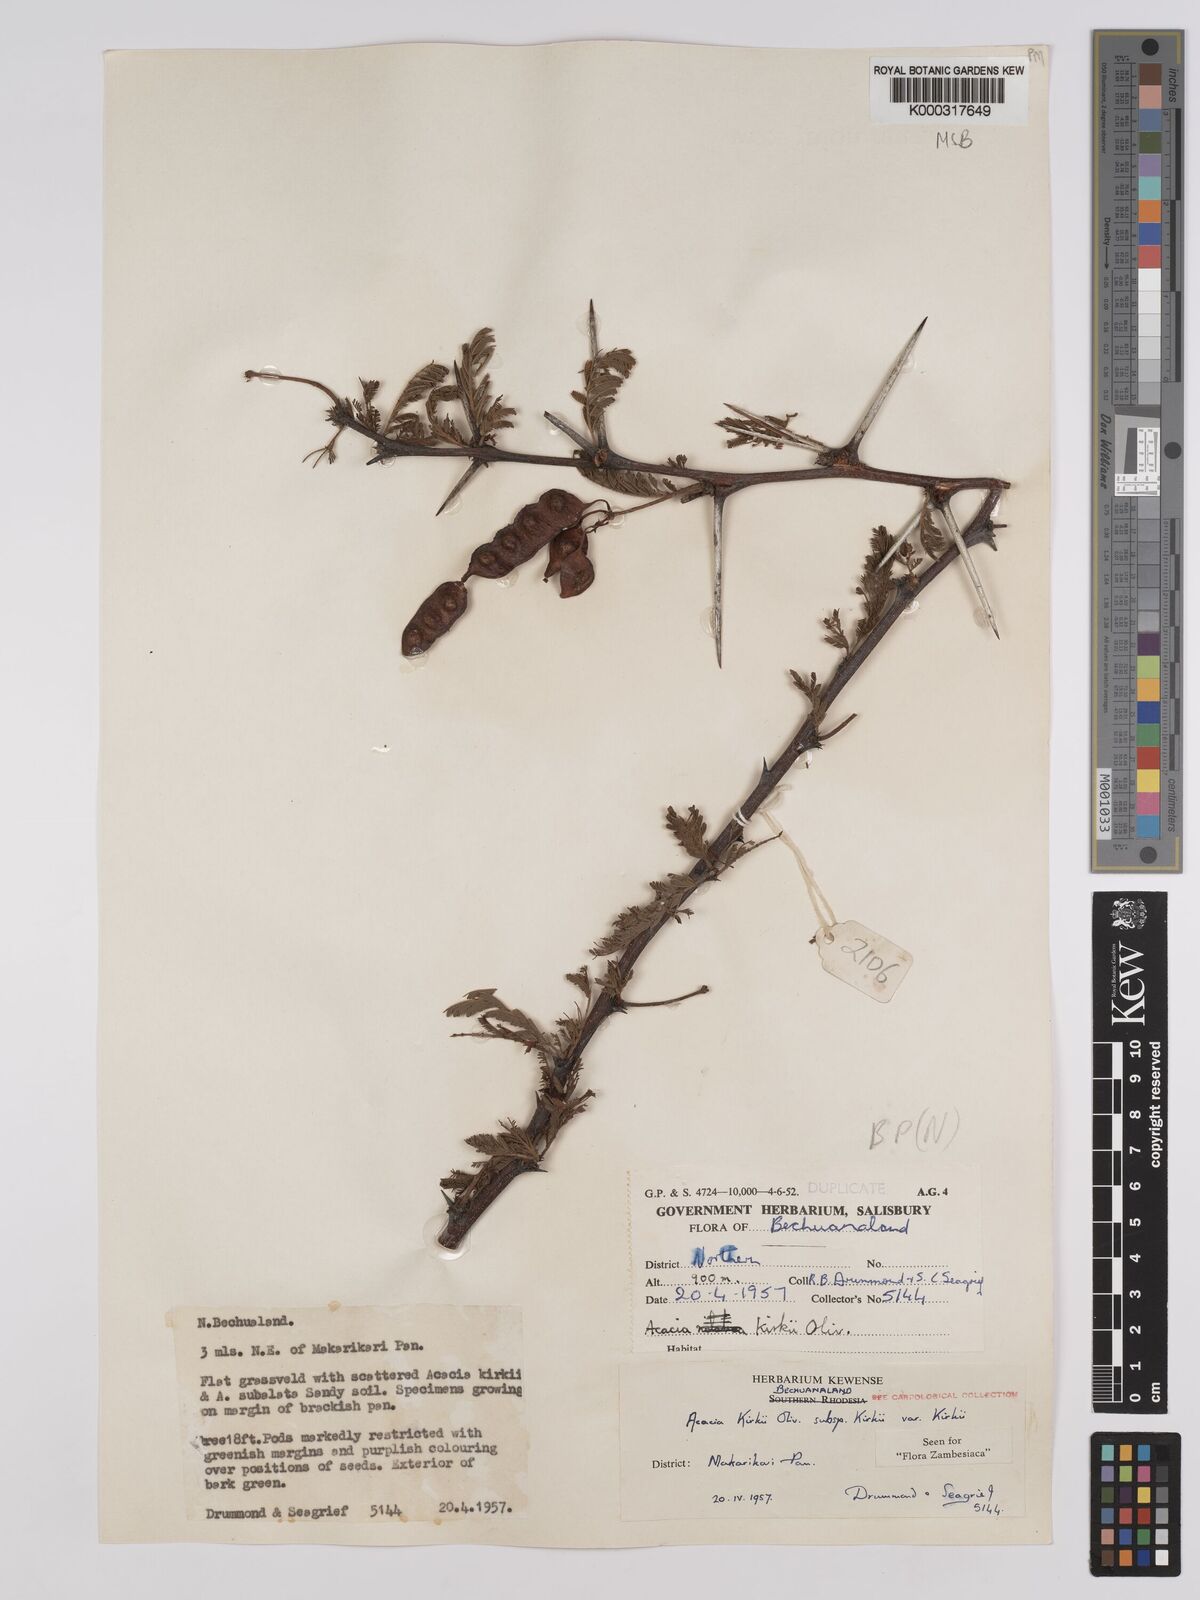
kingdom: Plantae
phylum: Tracheophyta
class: Magnoliopsida
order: Fabales
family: Fabaceae
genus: Vachellia
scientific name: Vachellia kirkii
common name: Flood-plain acacia
